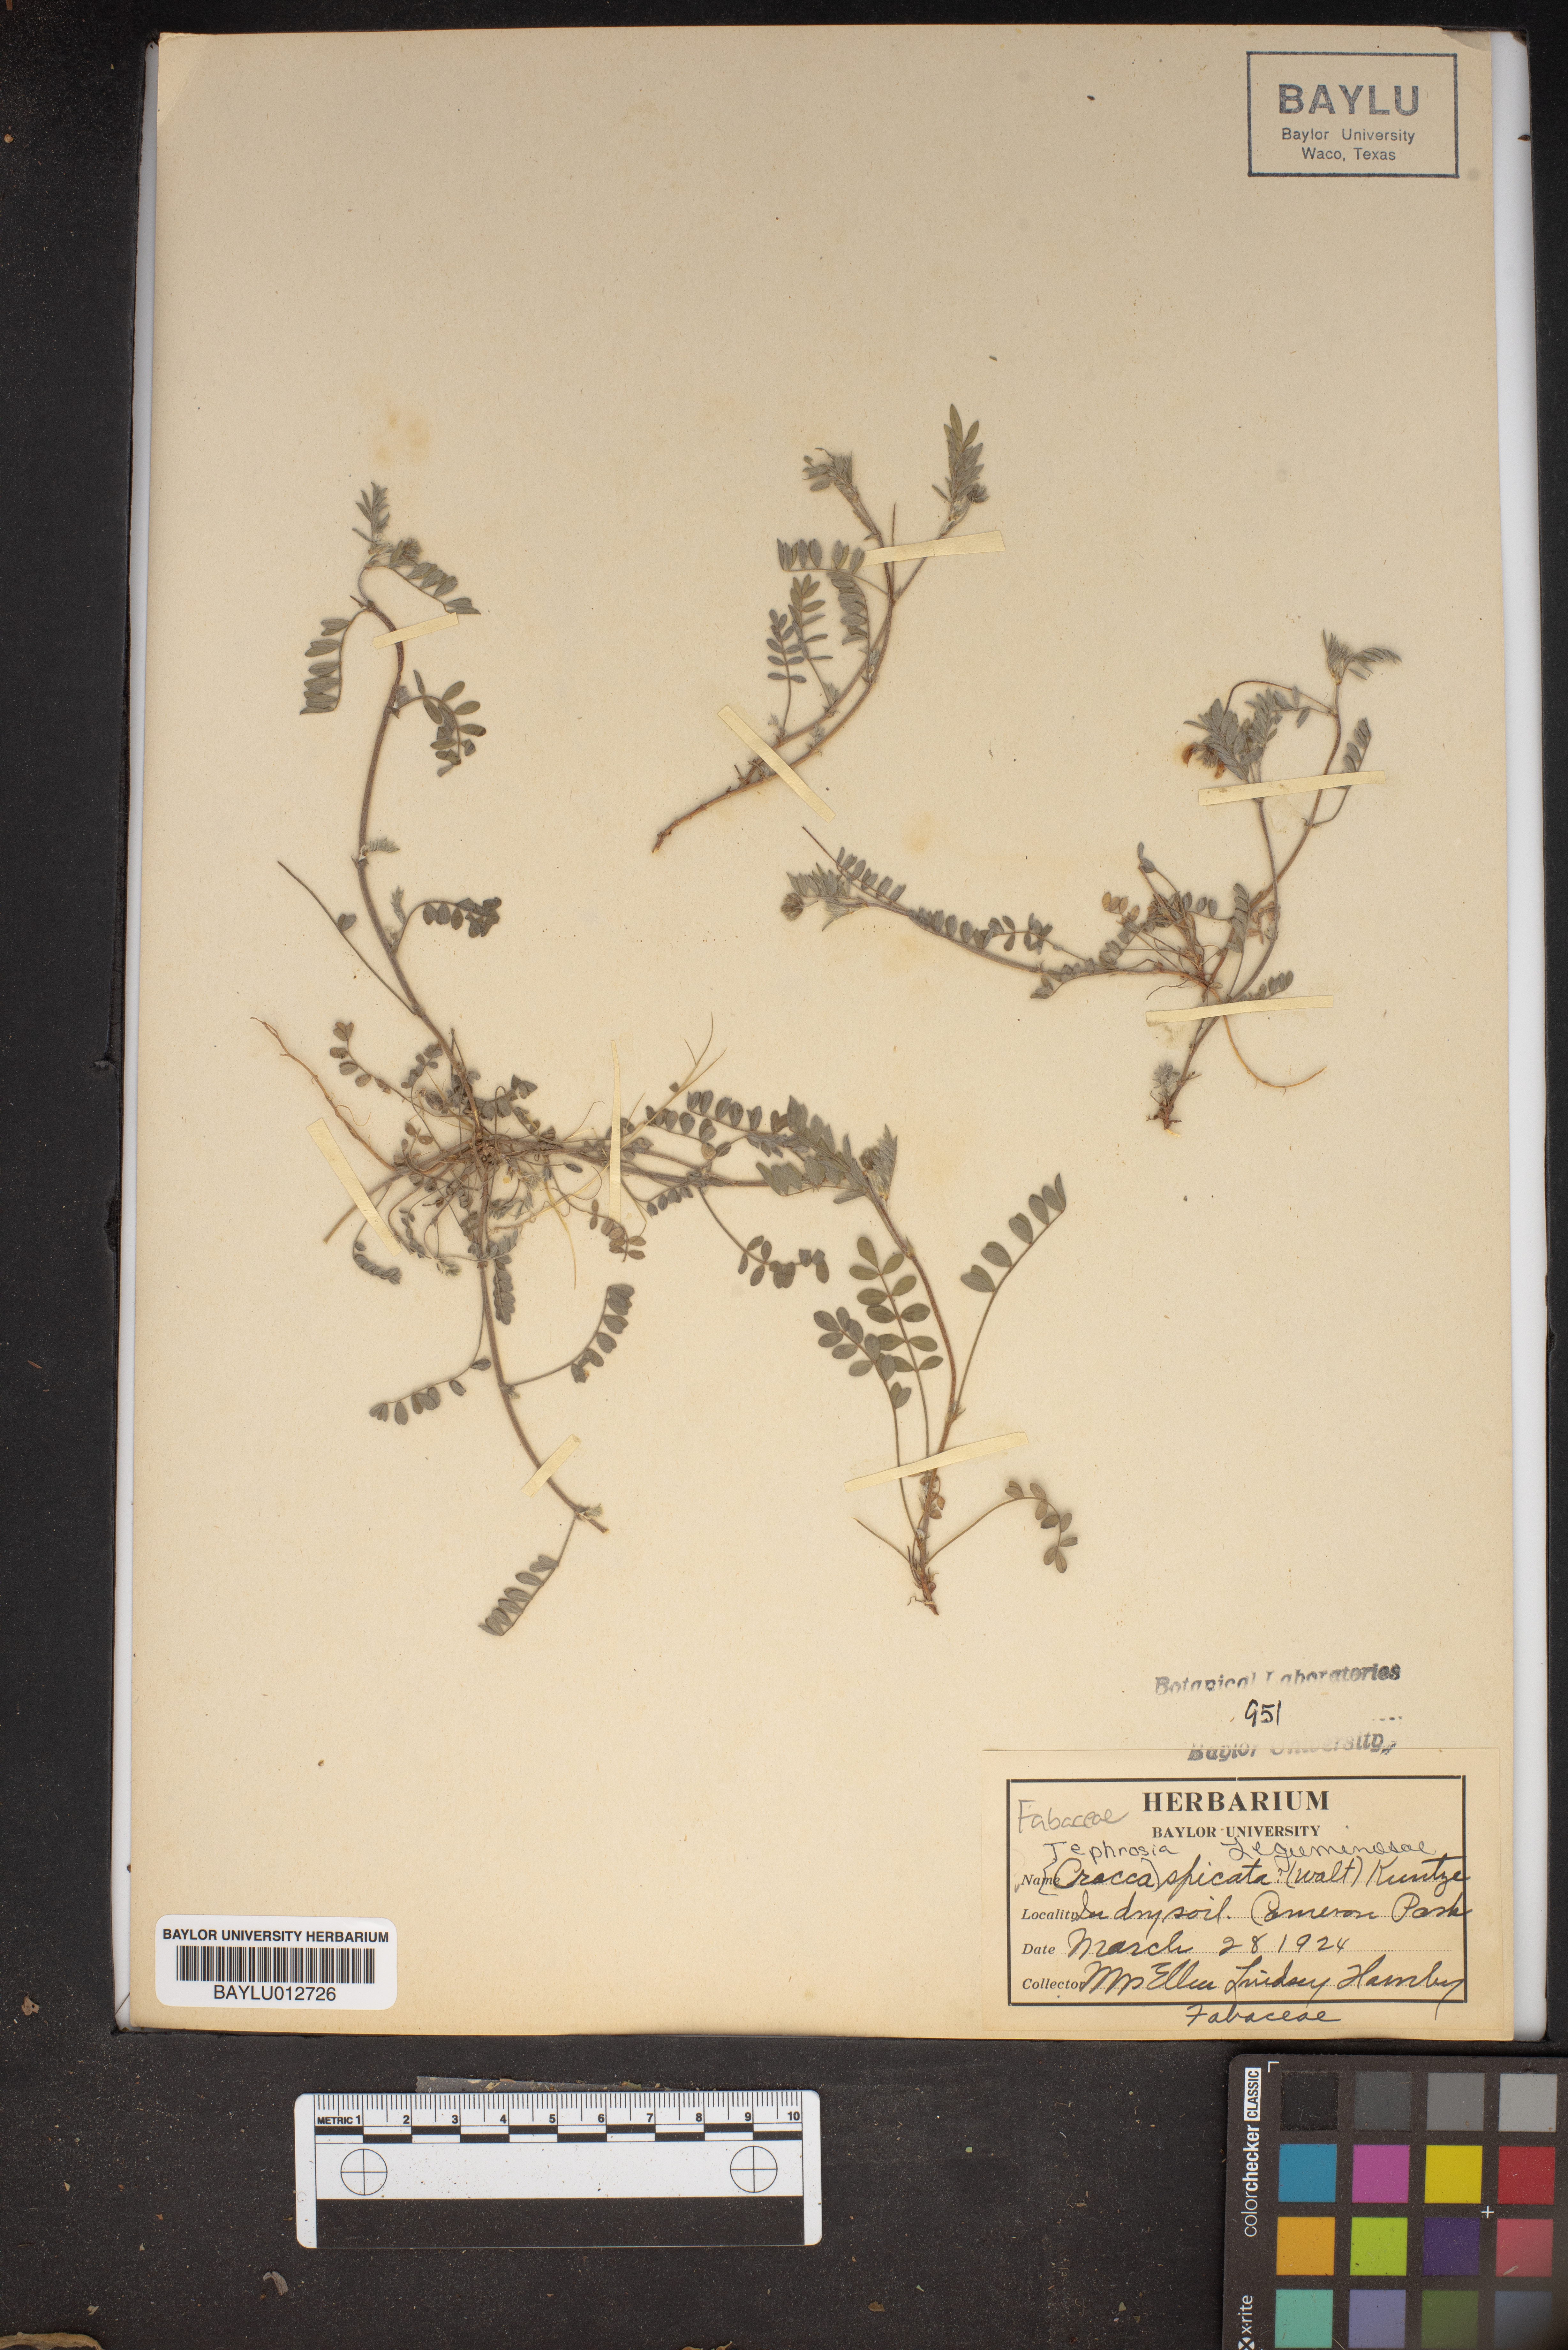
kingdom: Plantae
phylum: Tracheophyta
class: Magnoliopsida
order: Fabales
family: Fabaceae
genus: Tephrosia
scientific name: Tephrosia spicata
